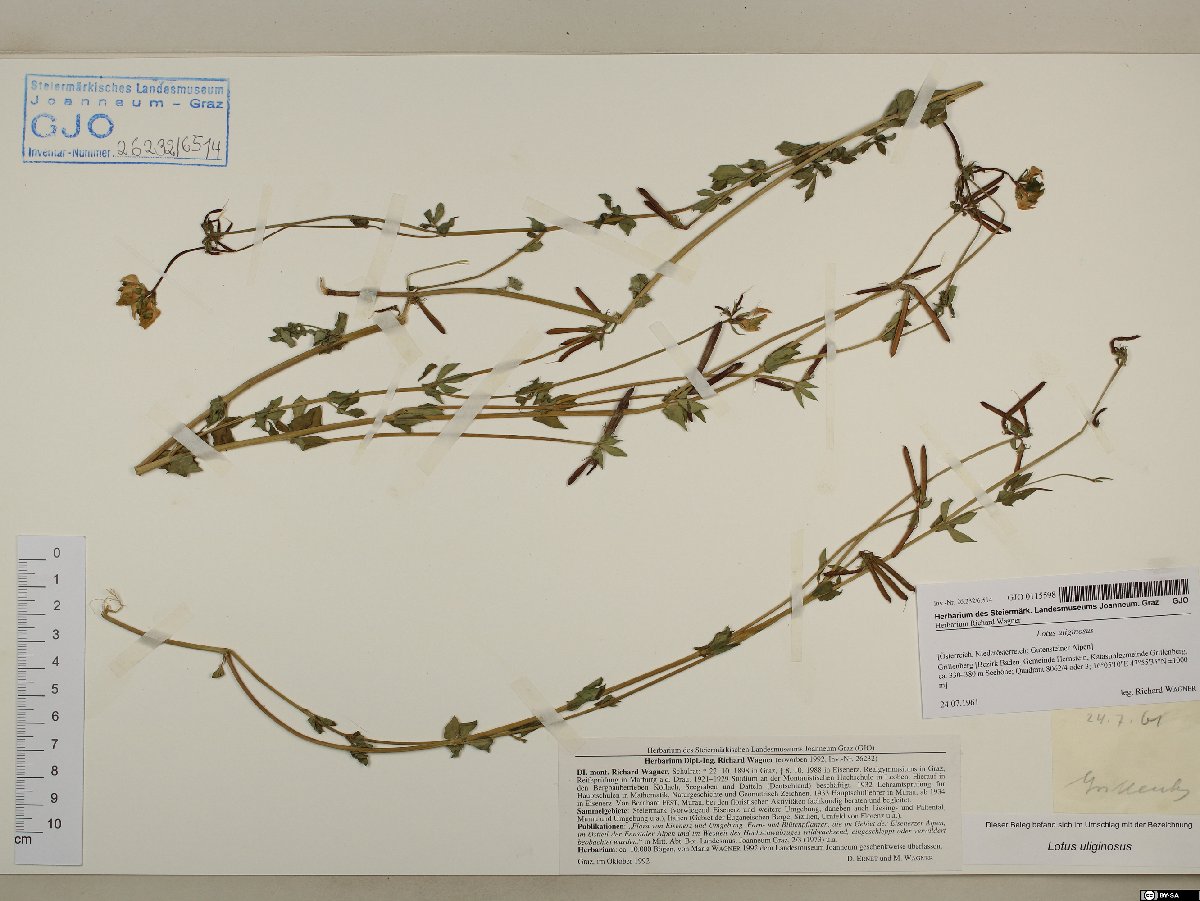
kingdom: Plantae
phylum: Tracheophyta
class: Magnoliopsida
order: Fabales
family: Fabaceae
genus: Lotus
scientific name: Lotus pedunculatus
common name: Greater birdsfoot-trefoil
